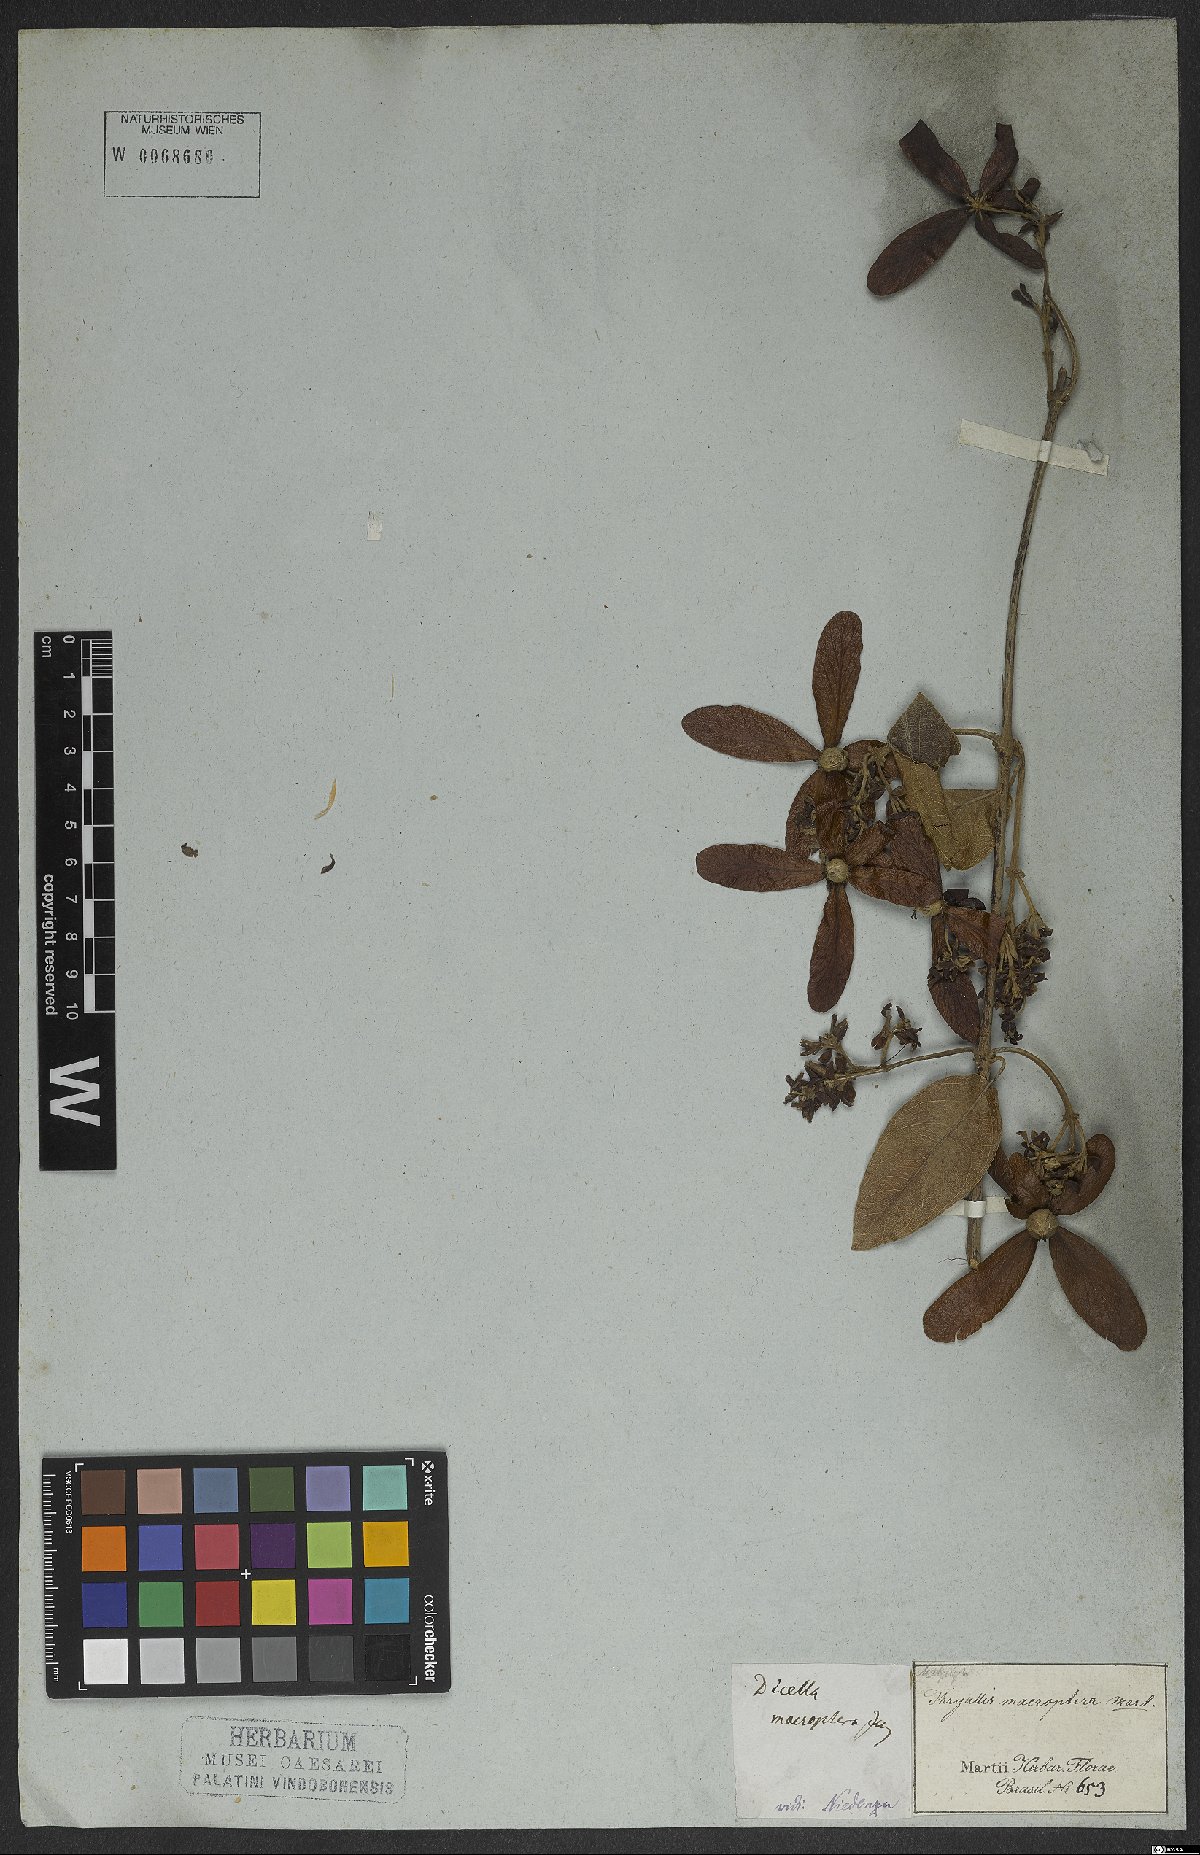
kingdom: Plantae
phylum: Tracheophyta
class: Magnoliopsida
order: Malpighiales
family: Malpighiaceae
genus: Dicella
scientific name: Dicella macroptera
